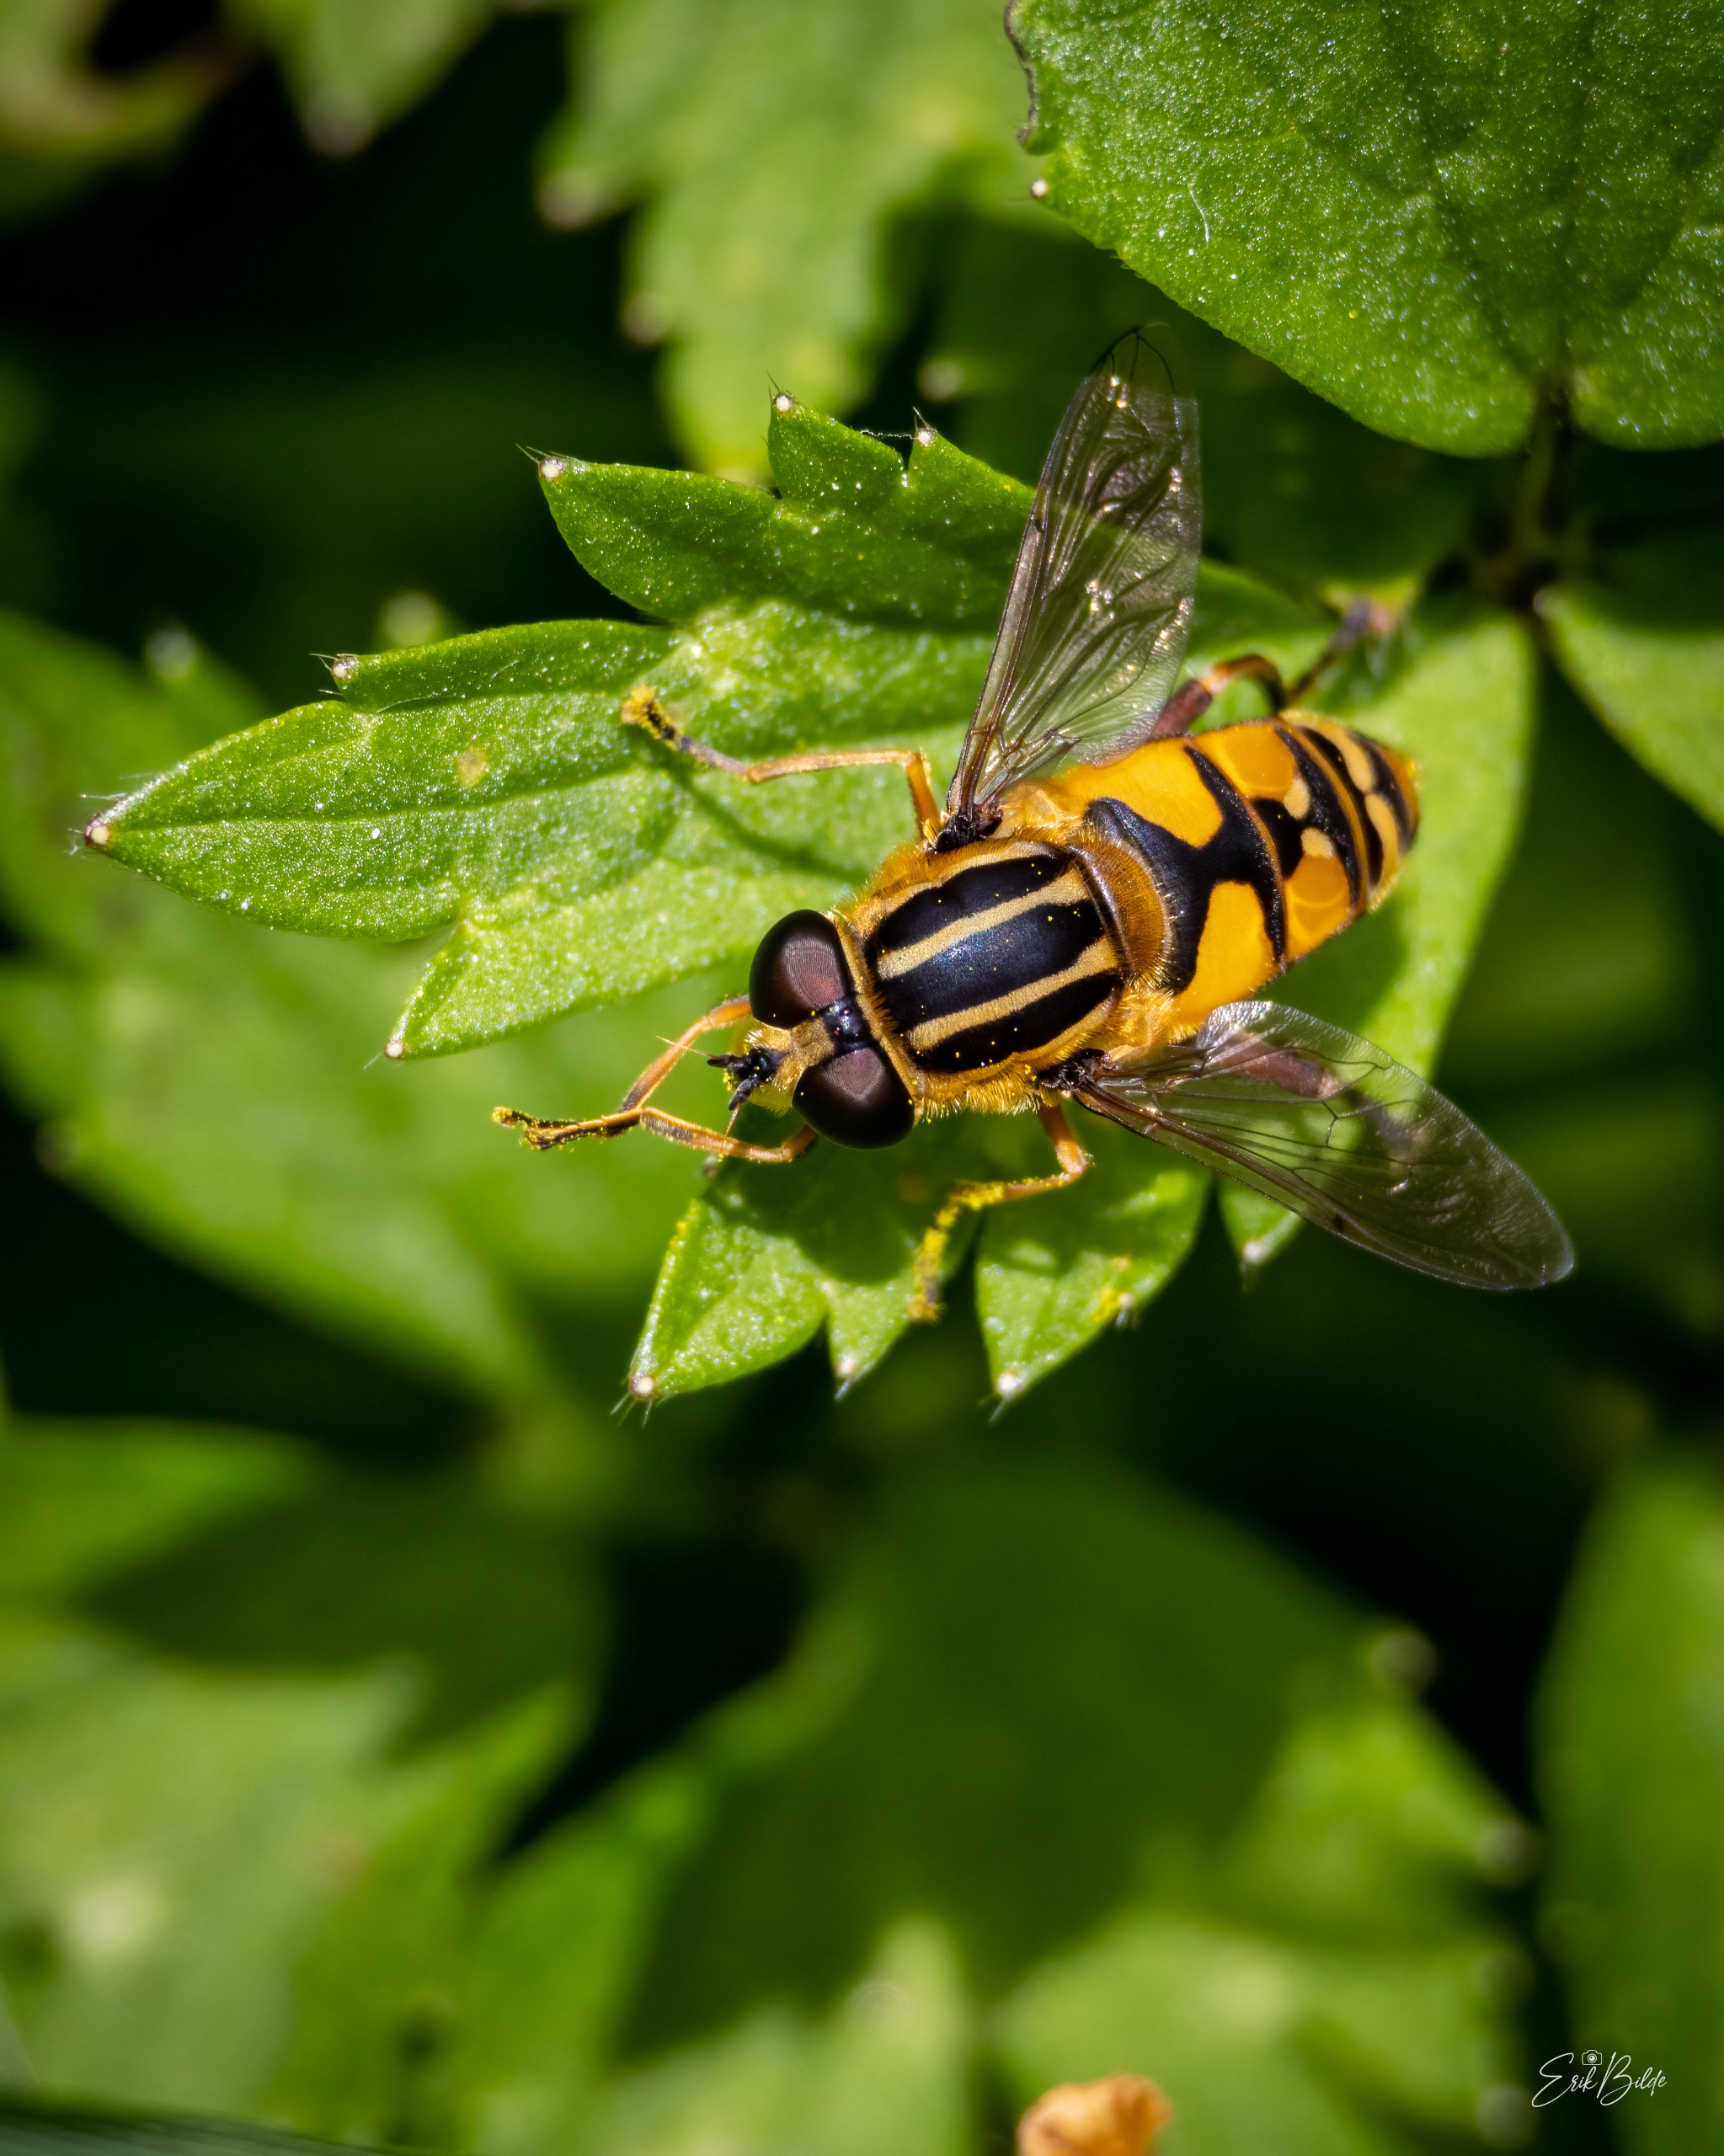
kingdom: Animalia
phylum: Arthropoda
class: Insecta
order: Diptera
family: Syrphidae
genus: Helophilus
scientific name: Helophilus pendulus
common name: Almindelig sumpsvirreflue
